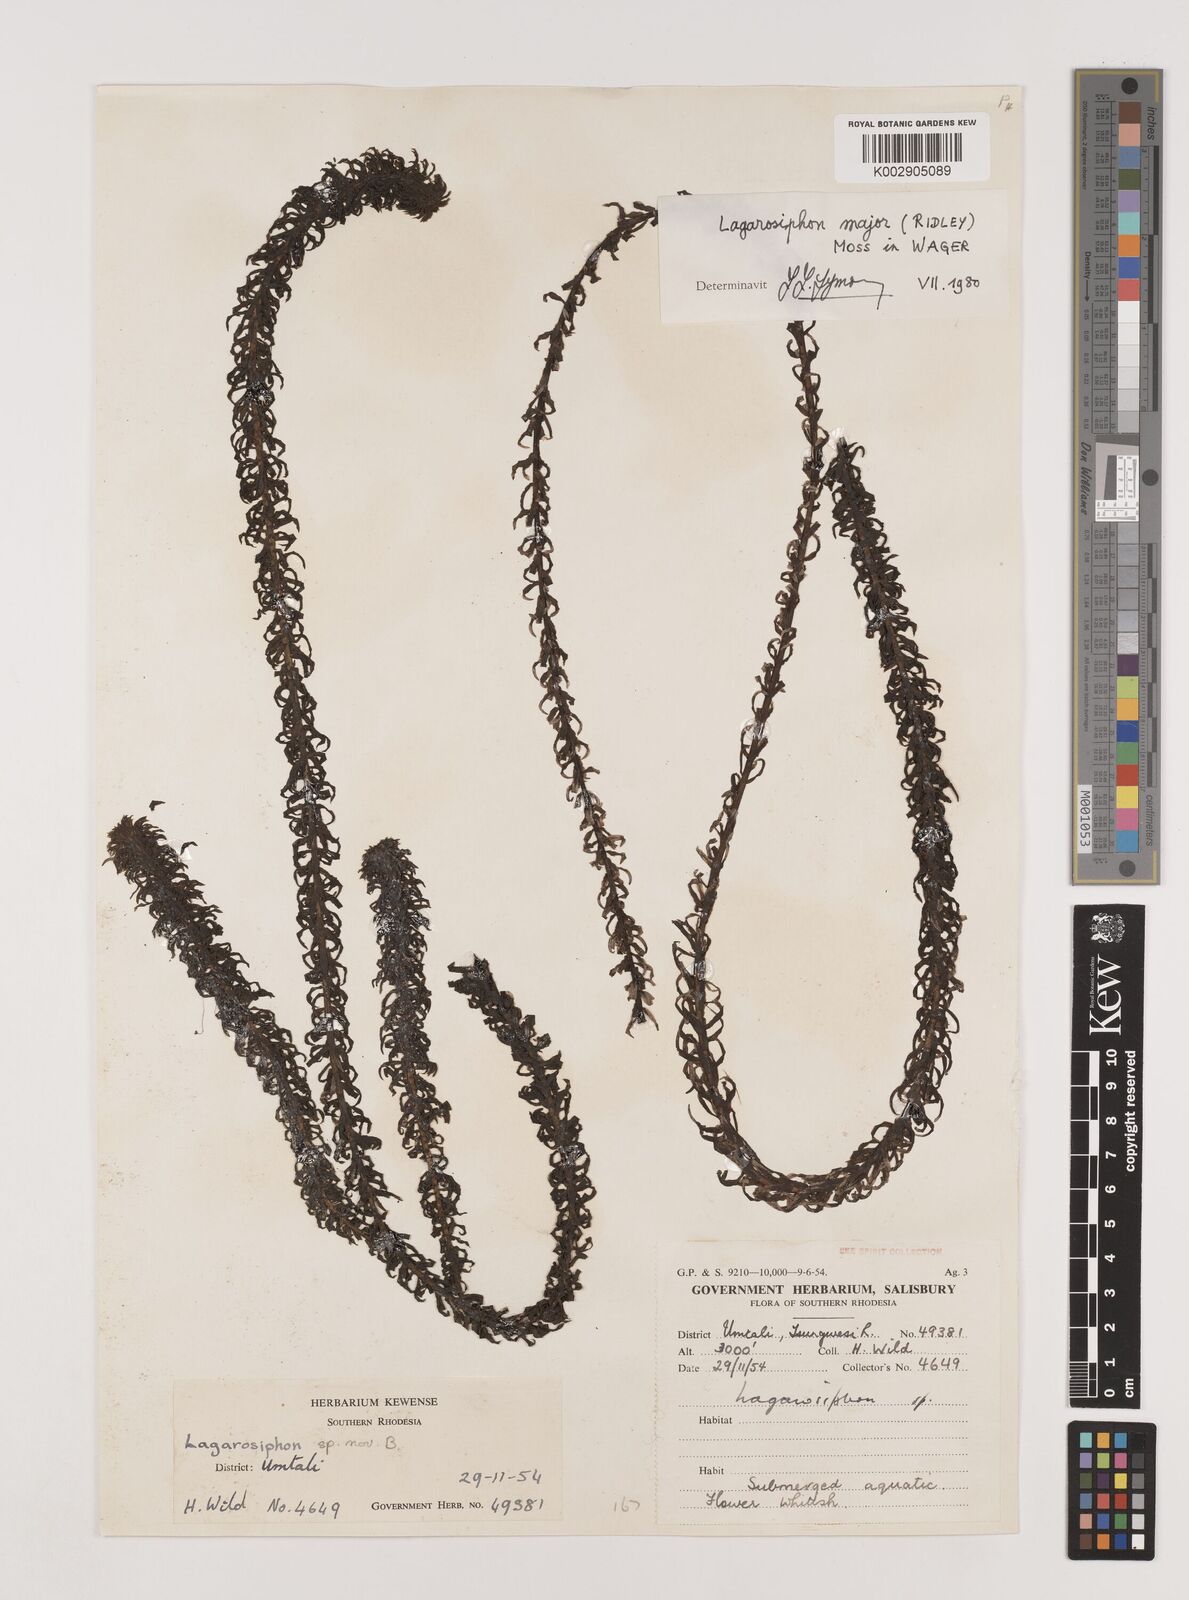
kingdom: Plantae
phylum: Tracheophyta
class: Liliopsida
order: Alismatales
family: Hydrocharitaceae
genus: Lagarosiphon
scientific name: Lagarosiphon major
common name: Curly waterweed
